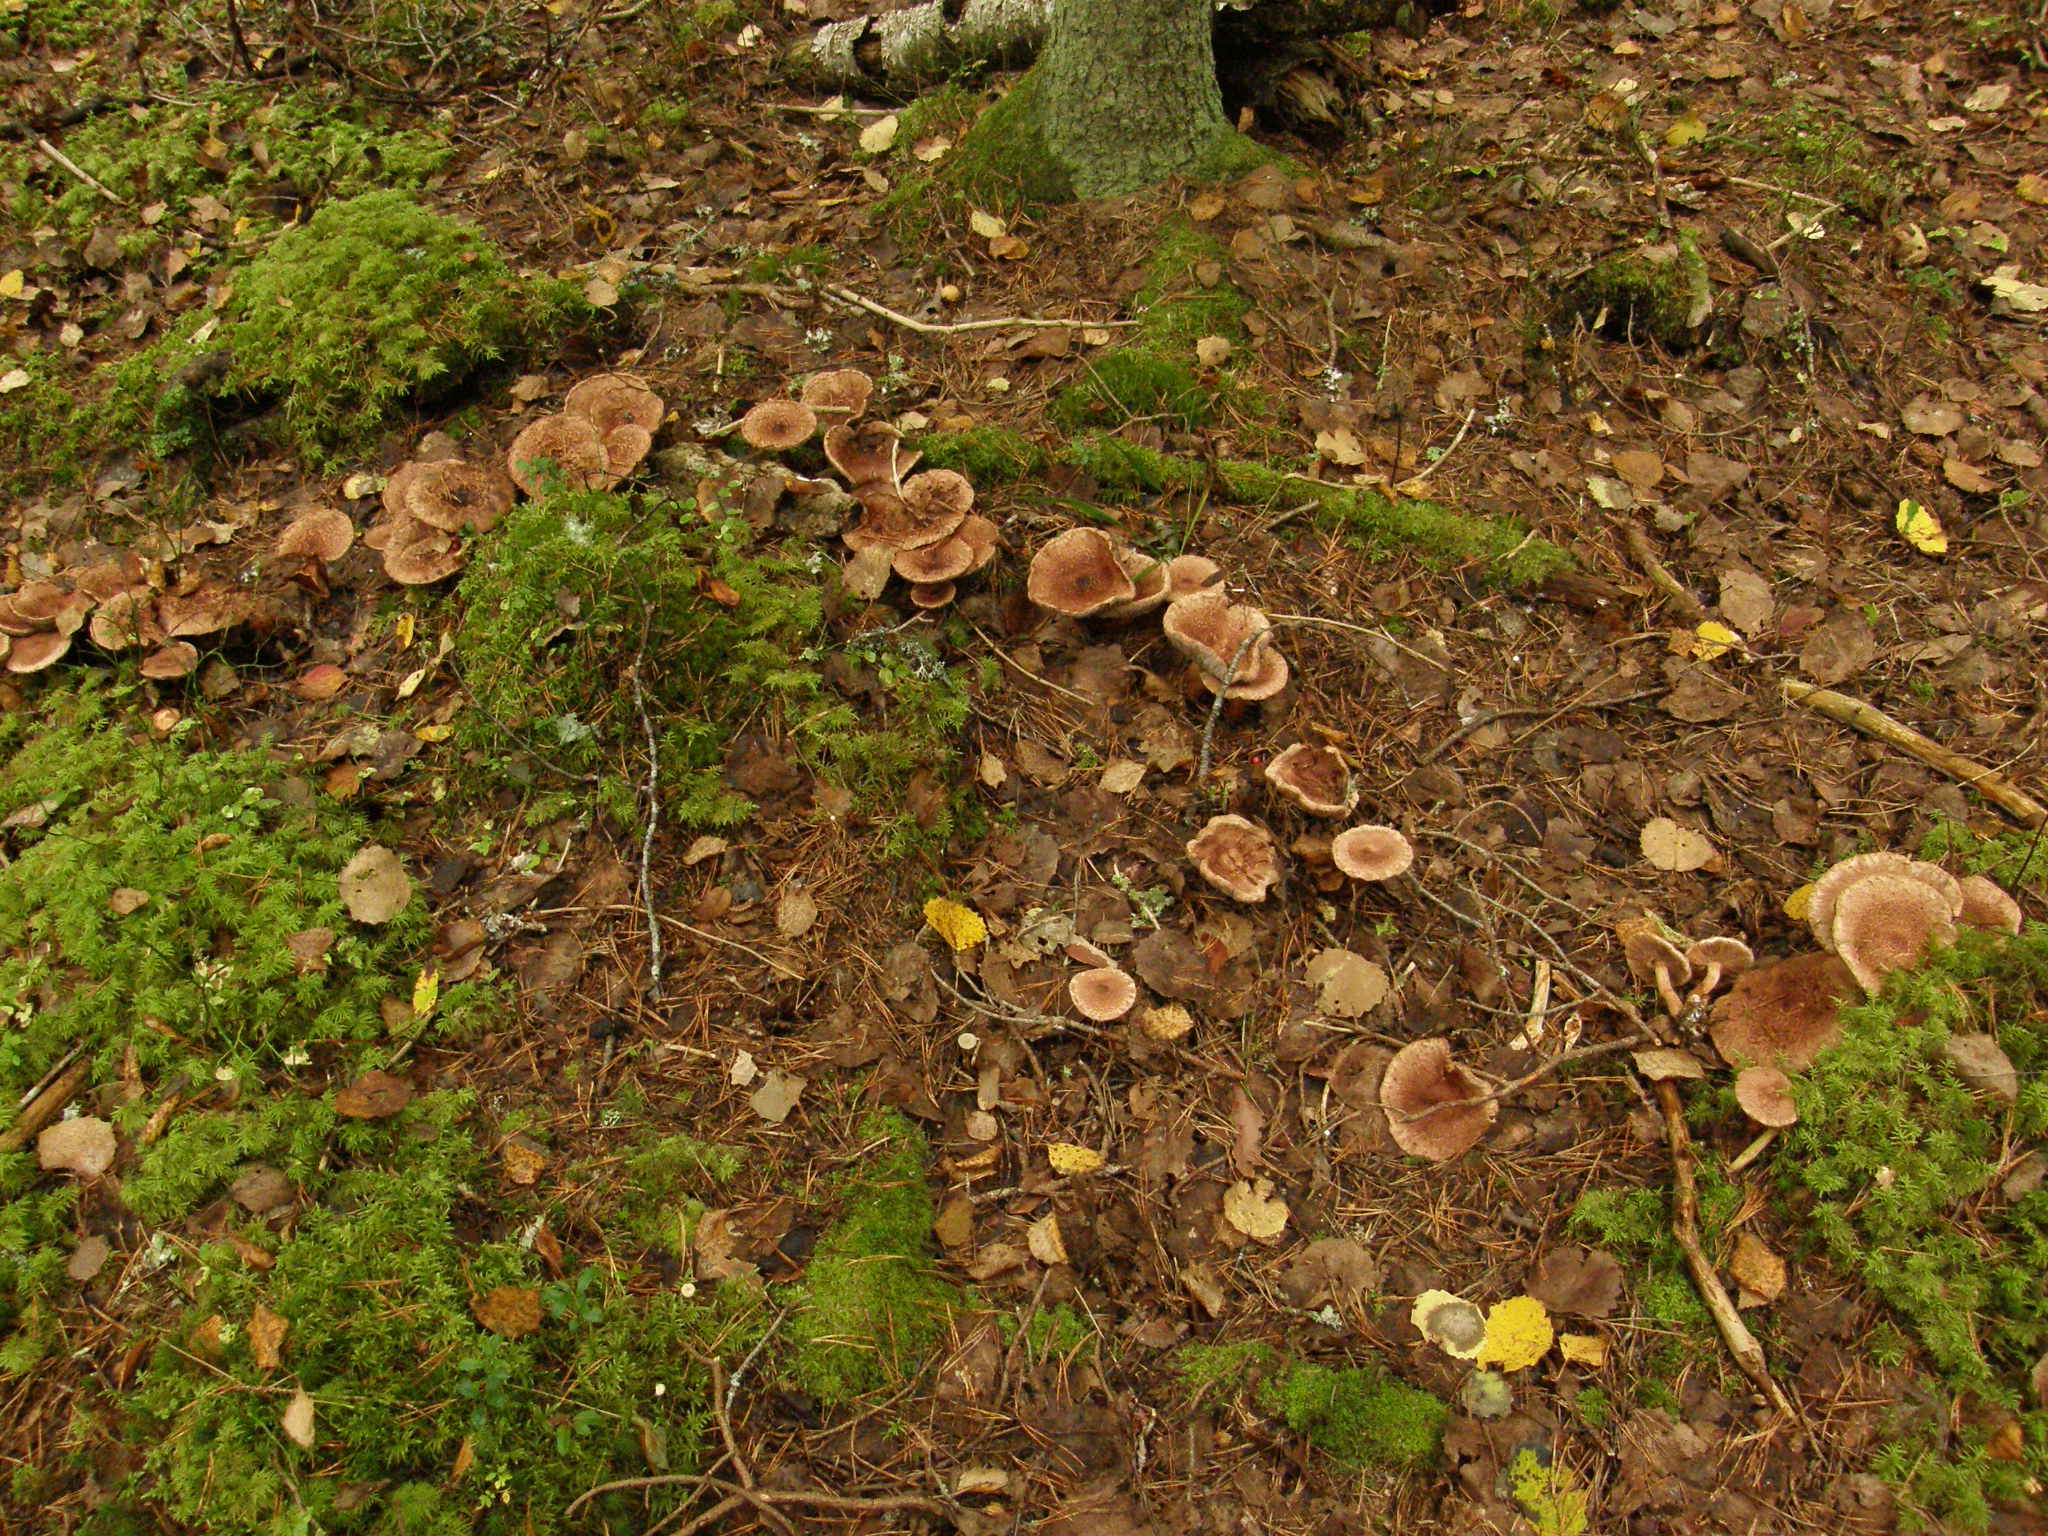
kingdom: Fungi
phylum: Basidiomycota
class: Agaricomycetes
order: Agaricales
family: Tricholomataceae
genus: Tricholoma
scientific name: Tricholoma vaccinum
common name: Scaly knight
